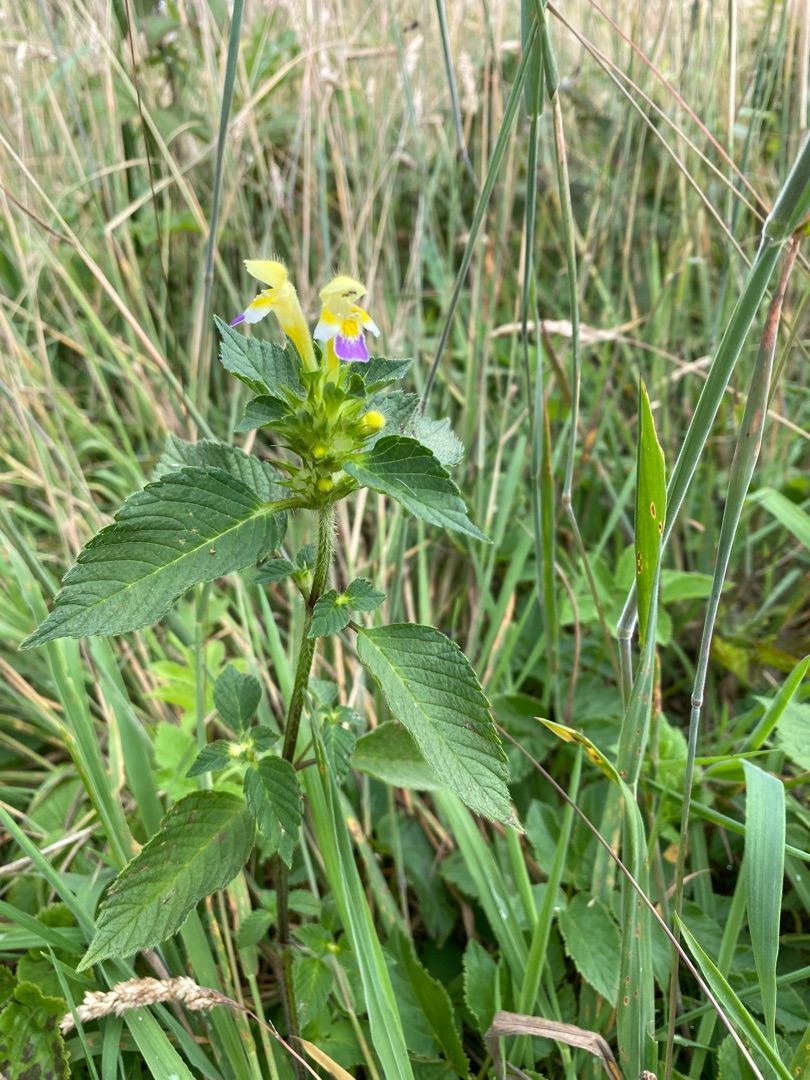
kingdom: Plantae
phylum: Tracheophyta
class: Magnoliopsida
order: Lamiales
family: Lamiaceae
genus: Galeopsis
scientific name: Galeopsis speciosa
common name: Hamp-hanekro
